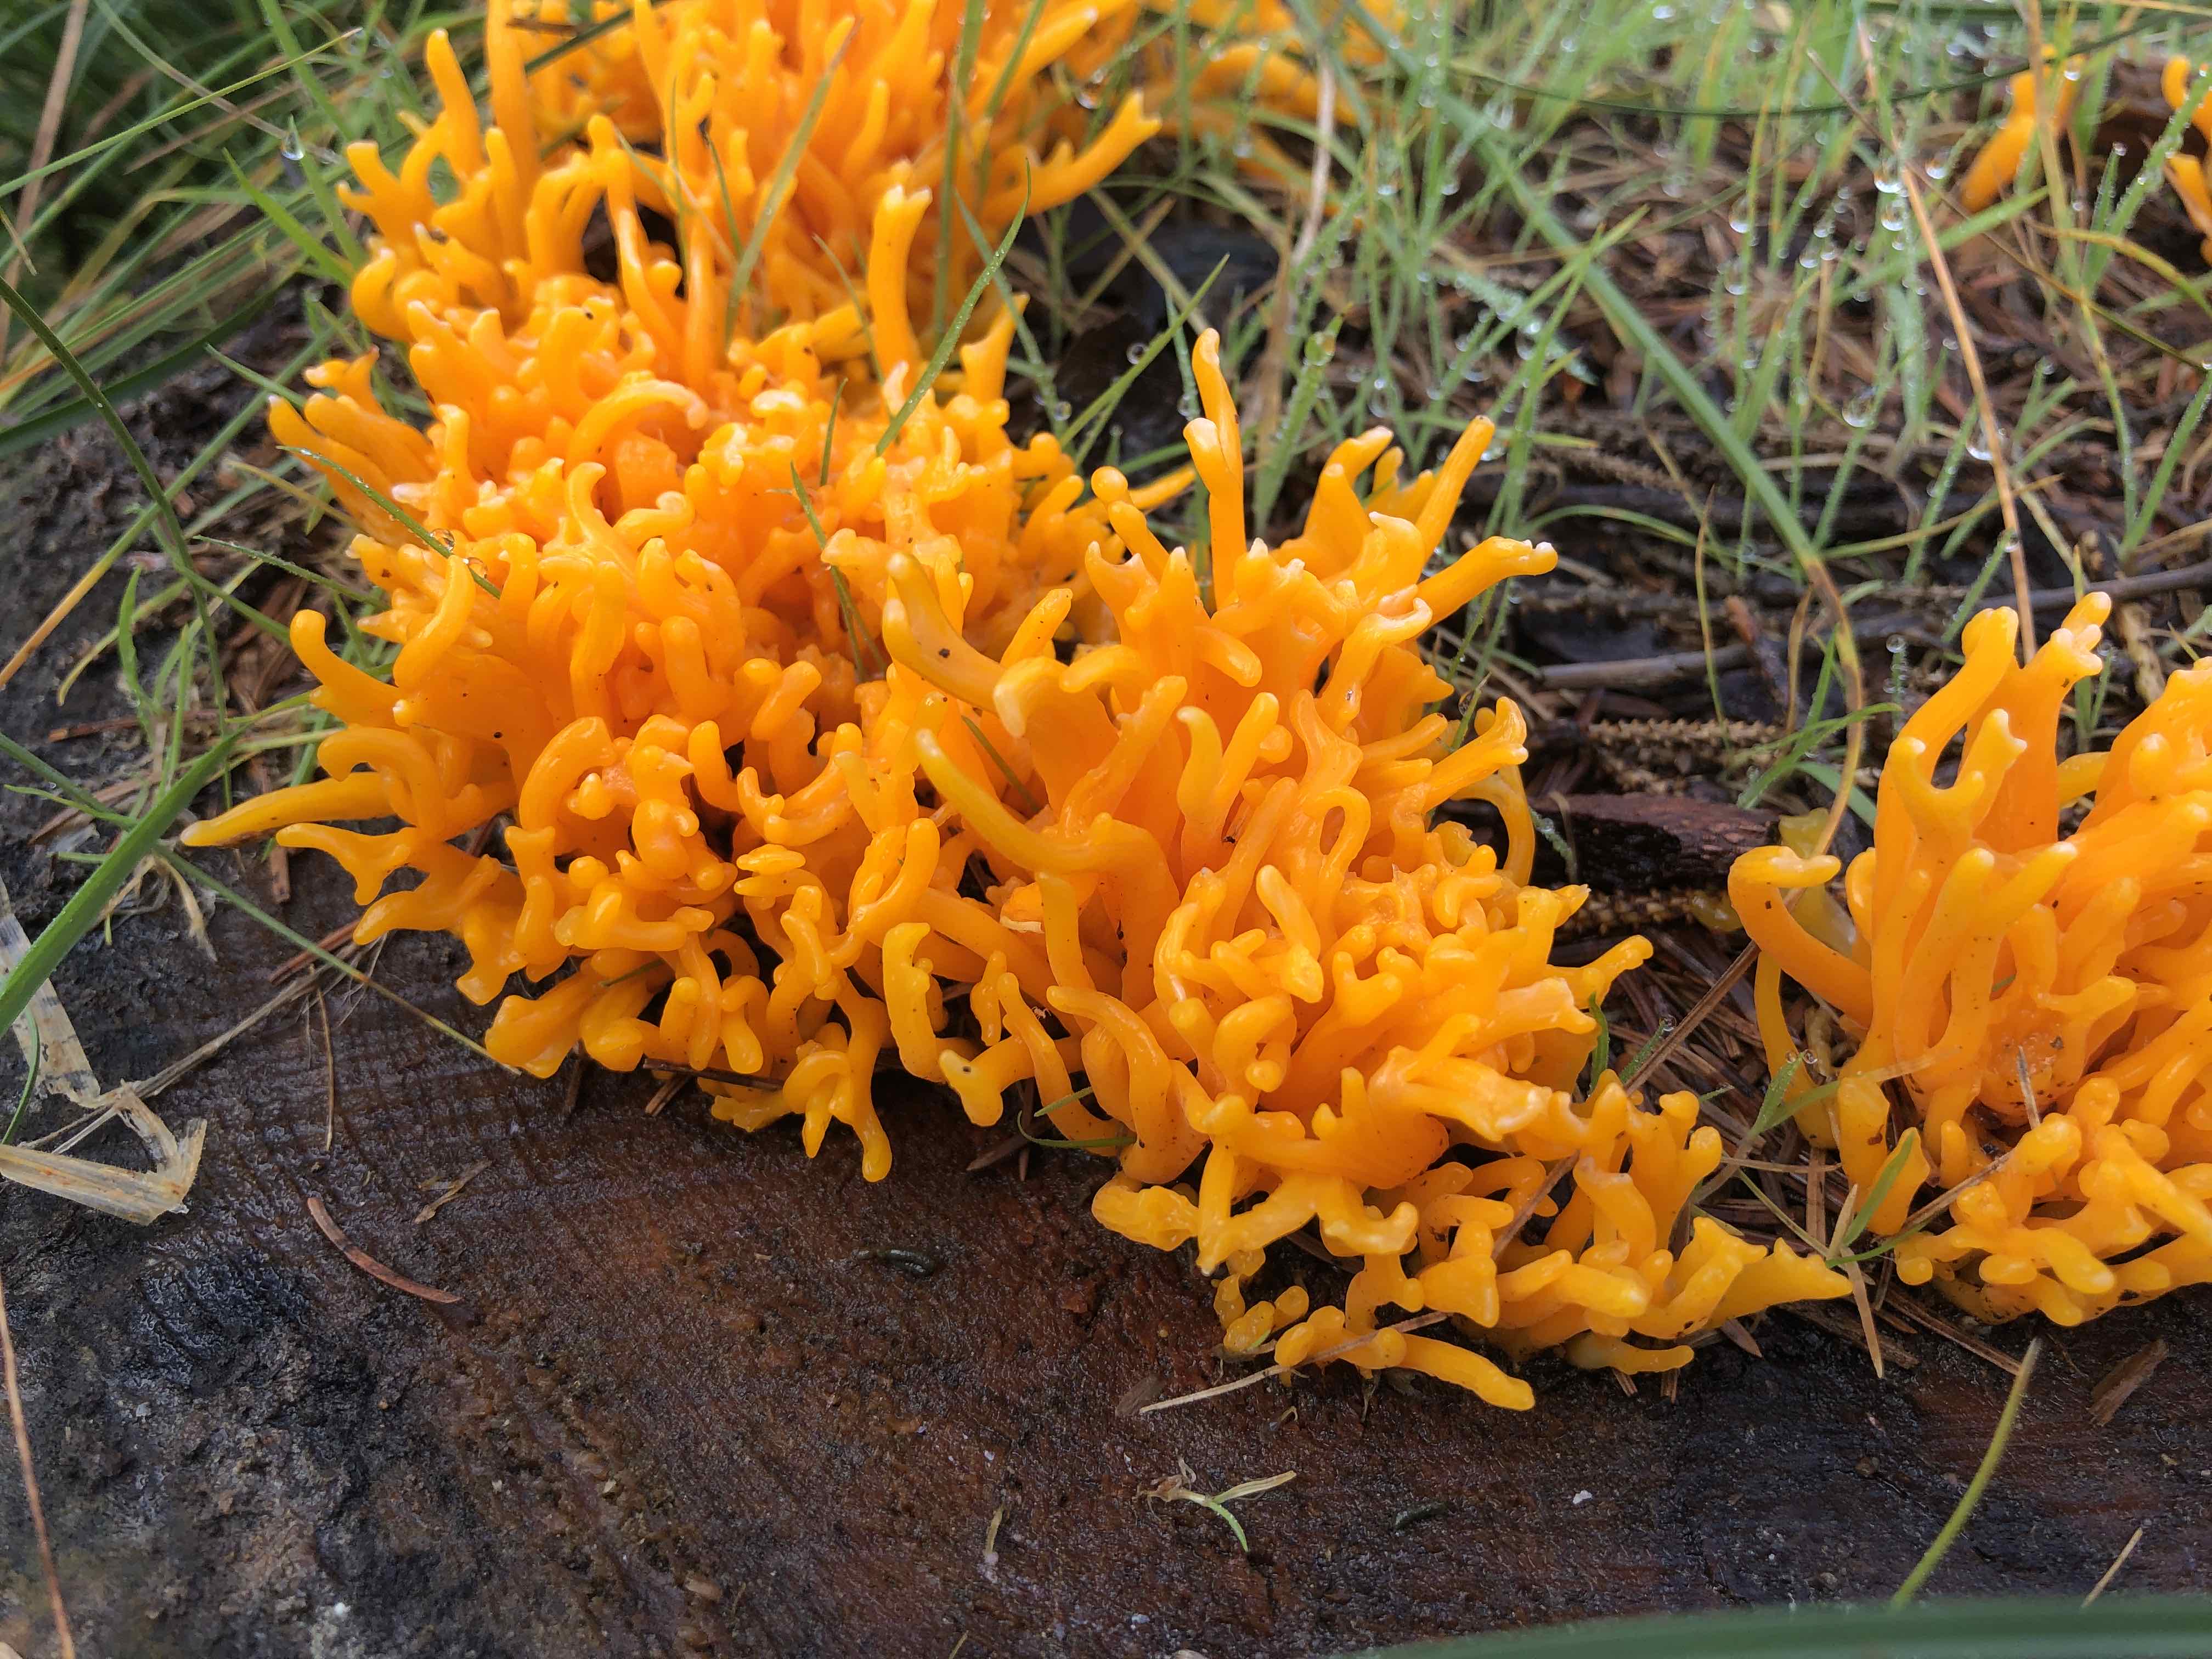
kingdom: Fungi
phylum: Basidiomycota
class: Dacrymycetes
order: Dacrymycetales
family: Dacrymycetaceae
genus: Calocera
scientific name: Calocera viscosa
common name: almindelig guldgaffel
